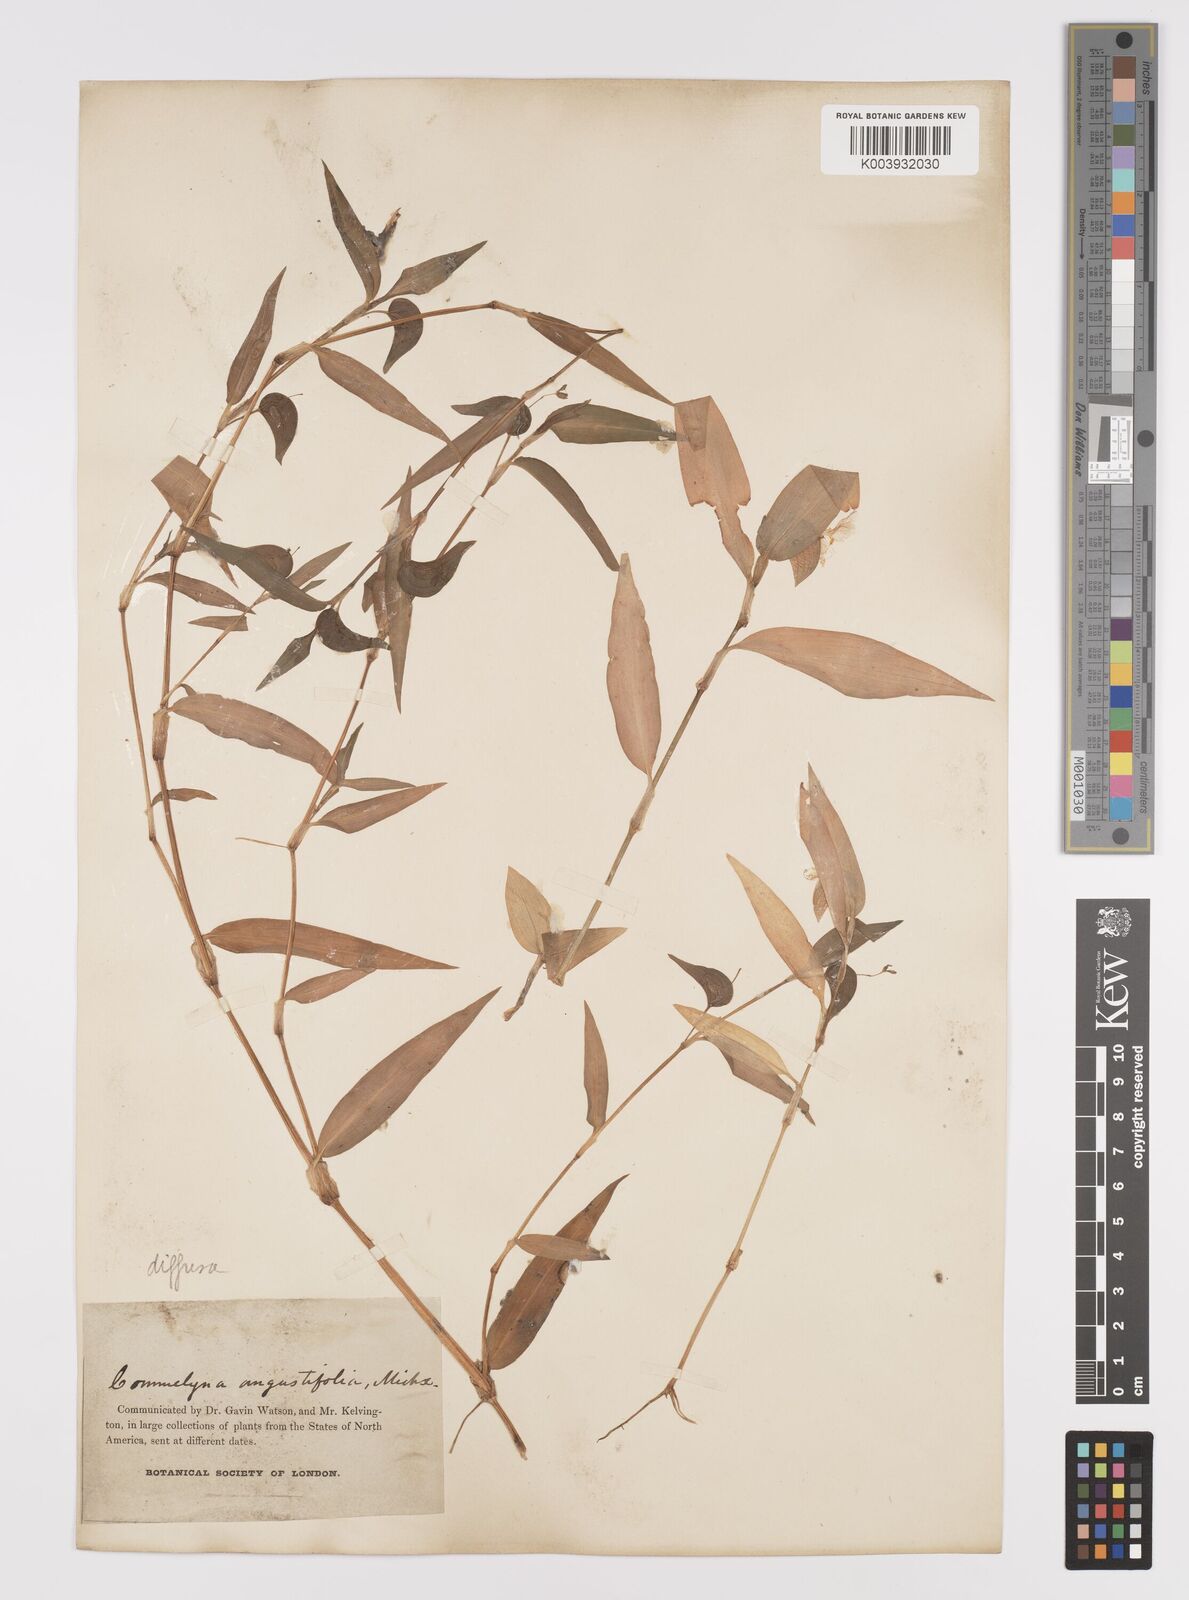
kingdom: Plantae
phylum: Tracheophyta
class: Liliopsida
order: Commelinales
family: Commelinaceae
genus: Commelina
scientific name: Commelina diffusa
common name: Climbing dayflower
